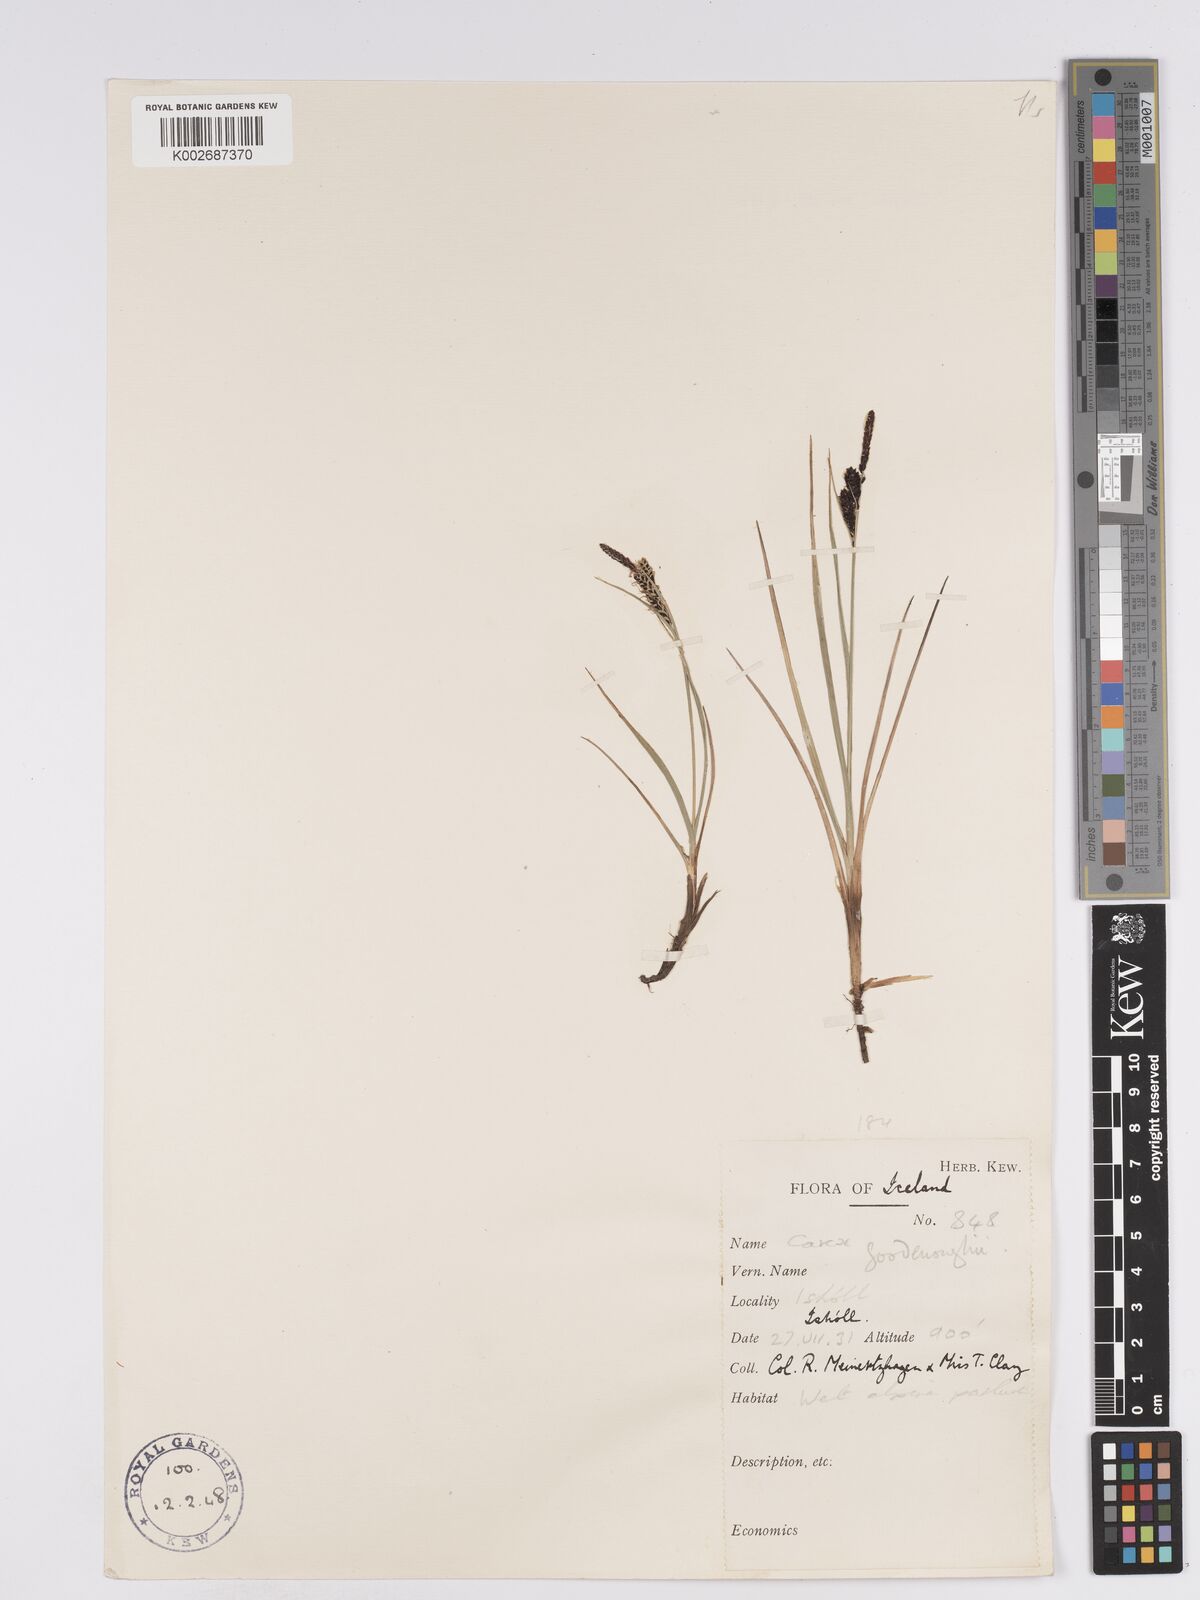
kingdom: Plantae
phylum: Tracheophyta
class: Liliopsida
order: Poales
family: Cyperaceae
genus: Carex
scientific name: Carex nigra
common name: Common sedge
